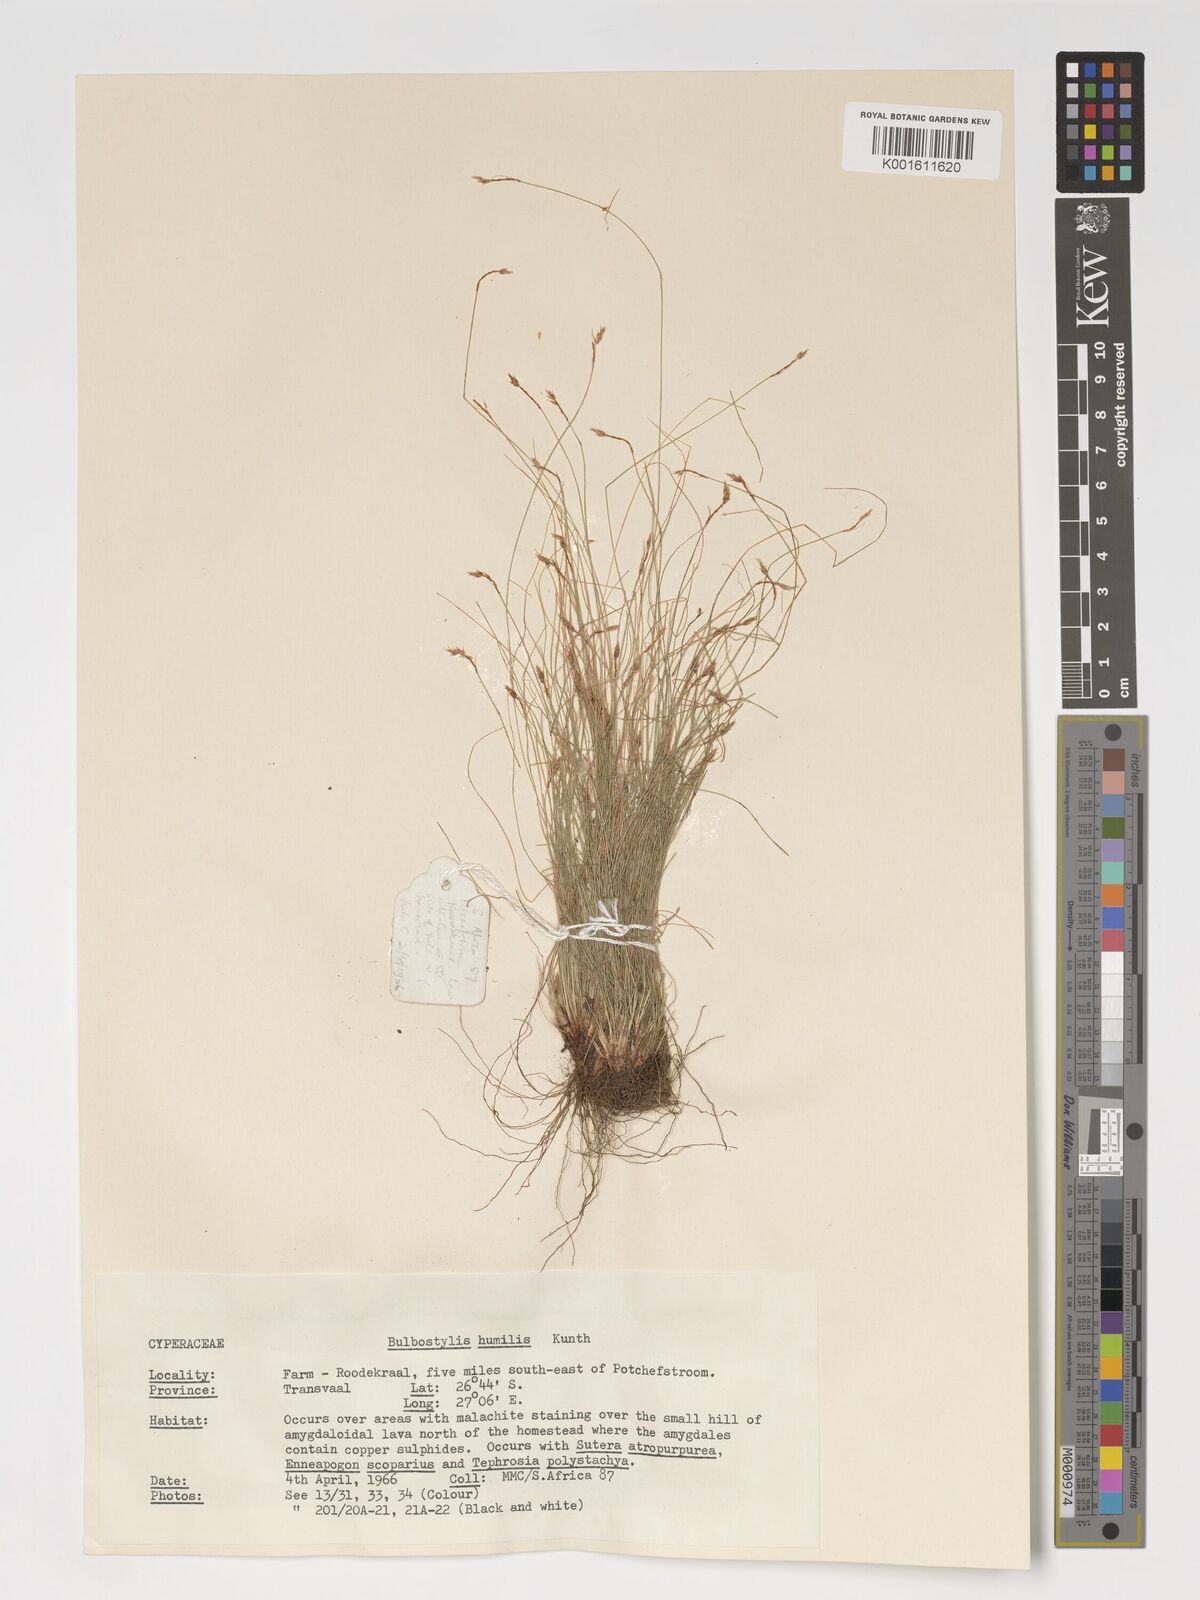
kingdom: Plantae
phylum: Tracheophyta
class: Liliopsida
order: Poales
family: Cyperaceae
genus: Bulbostylis
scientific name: Bulbostylis humilis
